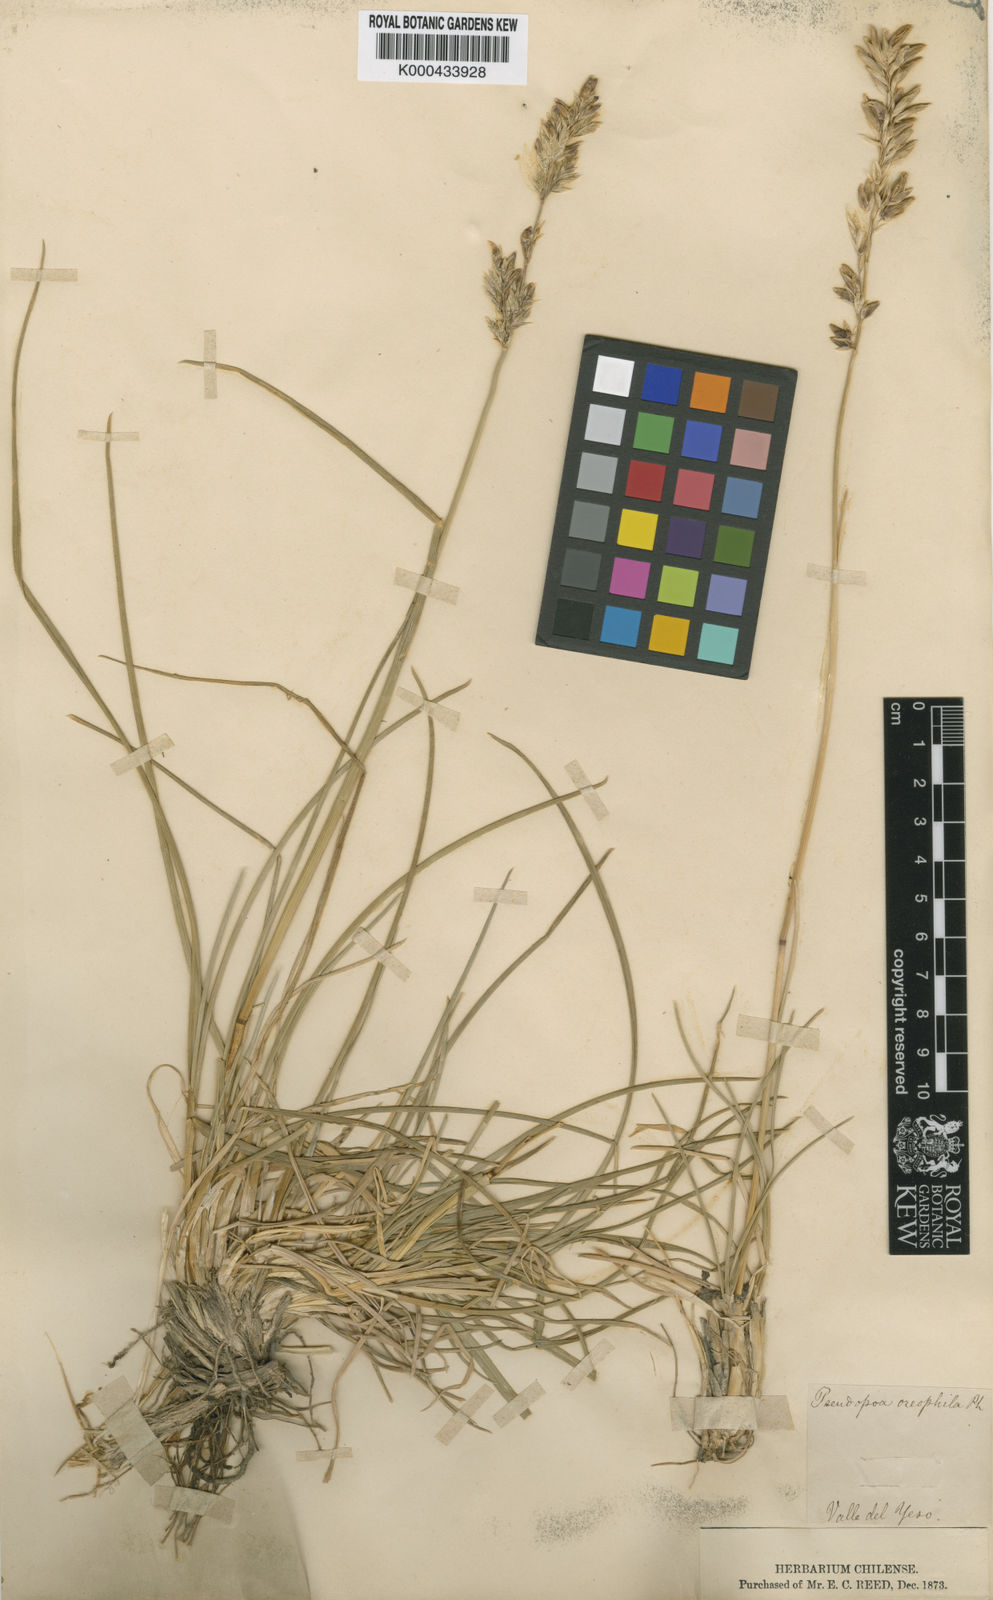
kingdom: Plantae
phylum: Tracheophyta
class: Liliopsida
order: Poales
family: Poaceae
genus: Poa
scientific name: Poa
